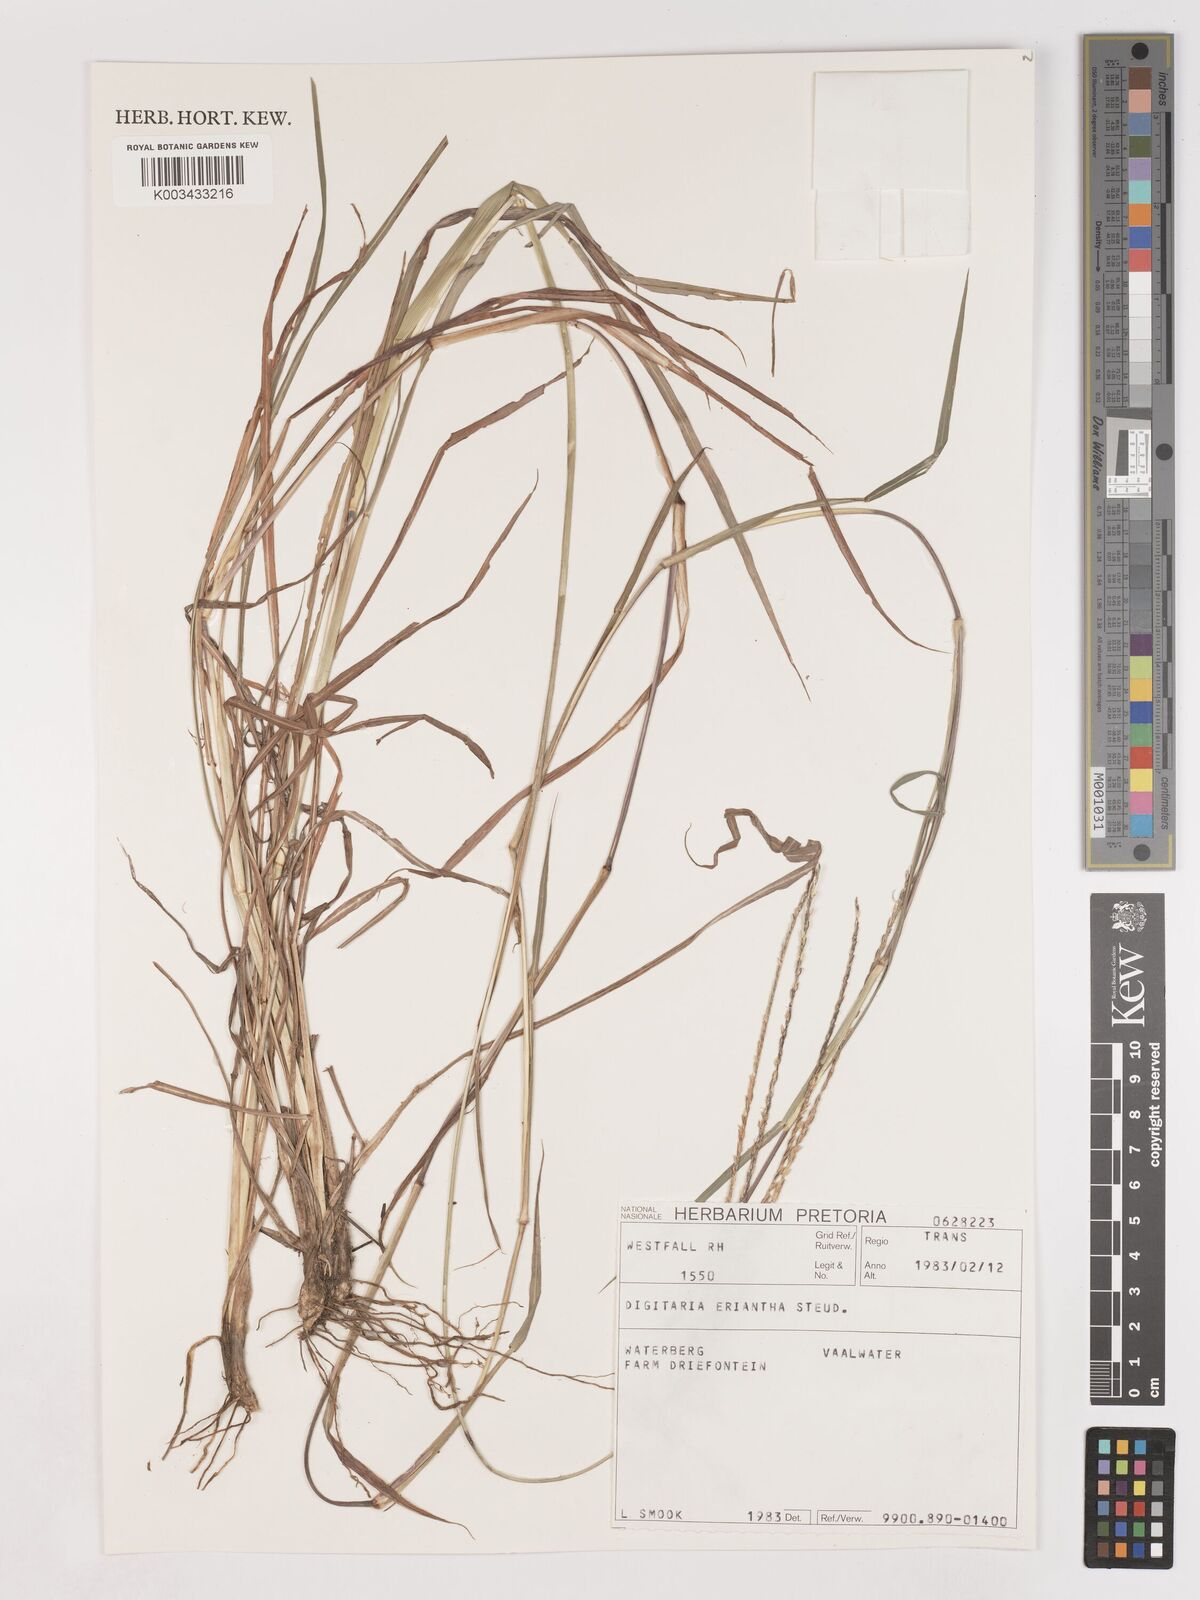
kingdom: Plantae
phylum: Tracheophyta
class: Liliopsida
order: Poales
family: Poaceae
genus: Digitaria
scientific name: Digitaria eriantha
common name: Digitgrass
